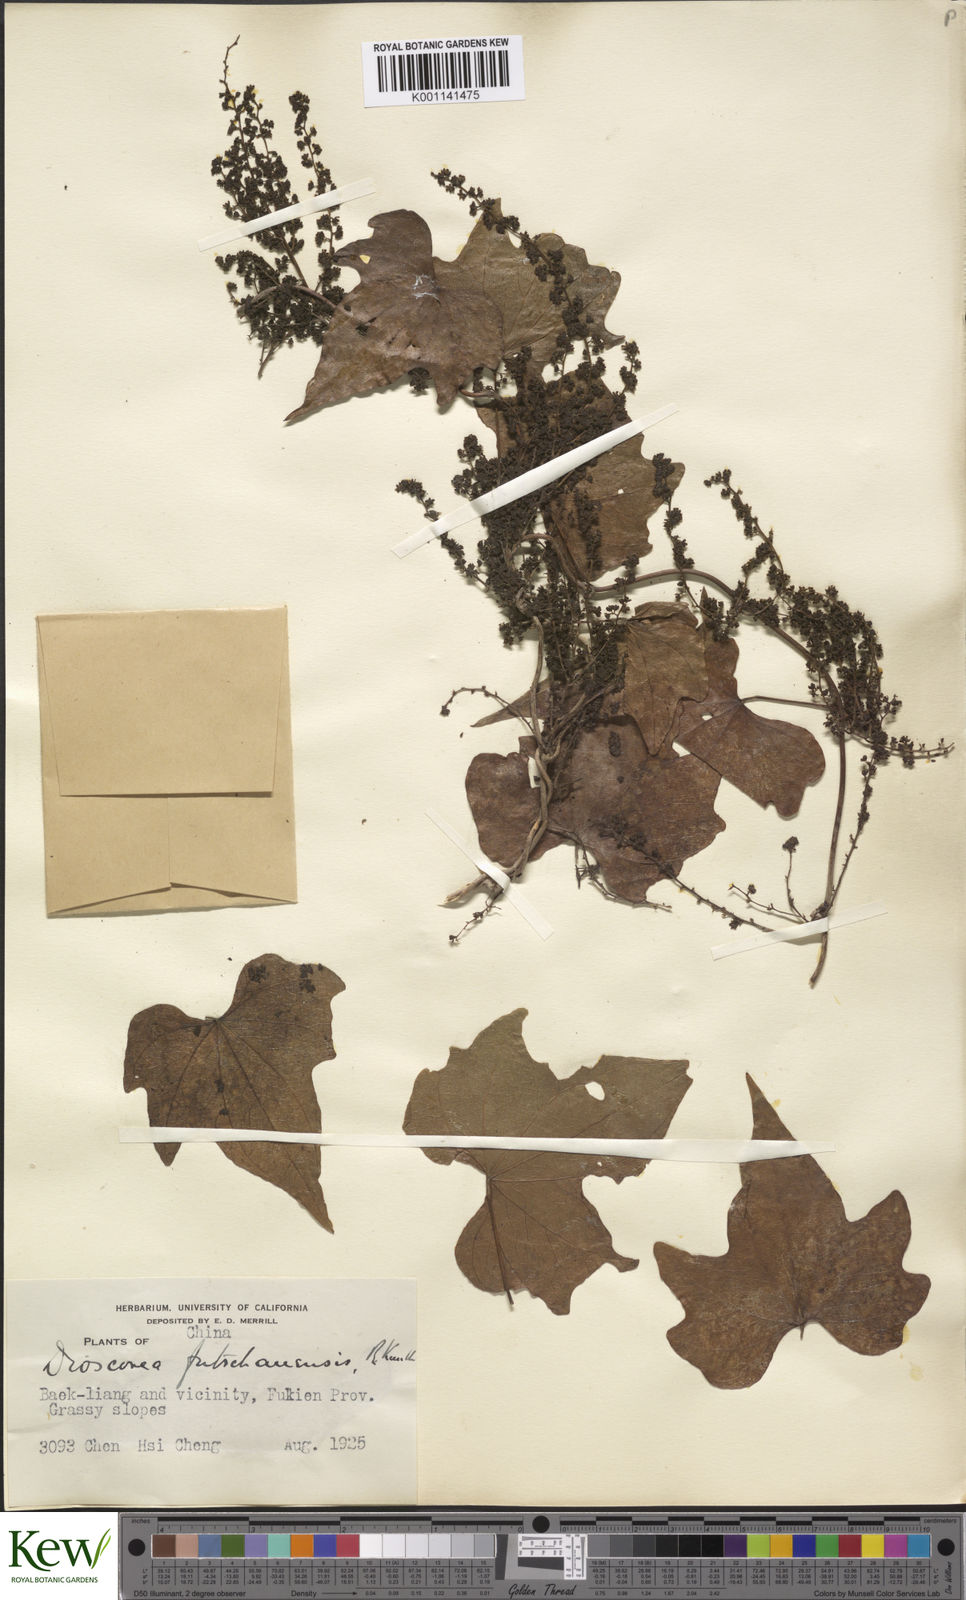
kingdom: Plantae
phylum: Tracheophyta
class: Liliopsida
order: Dioscoreales
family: Dioscoreaceae
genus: Dioscorea
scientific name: Dioscorea futschauensis
